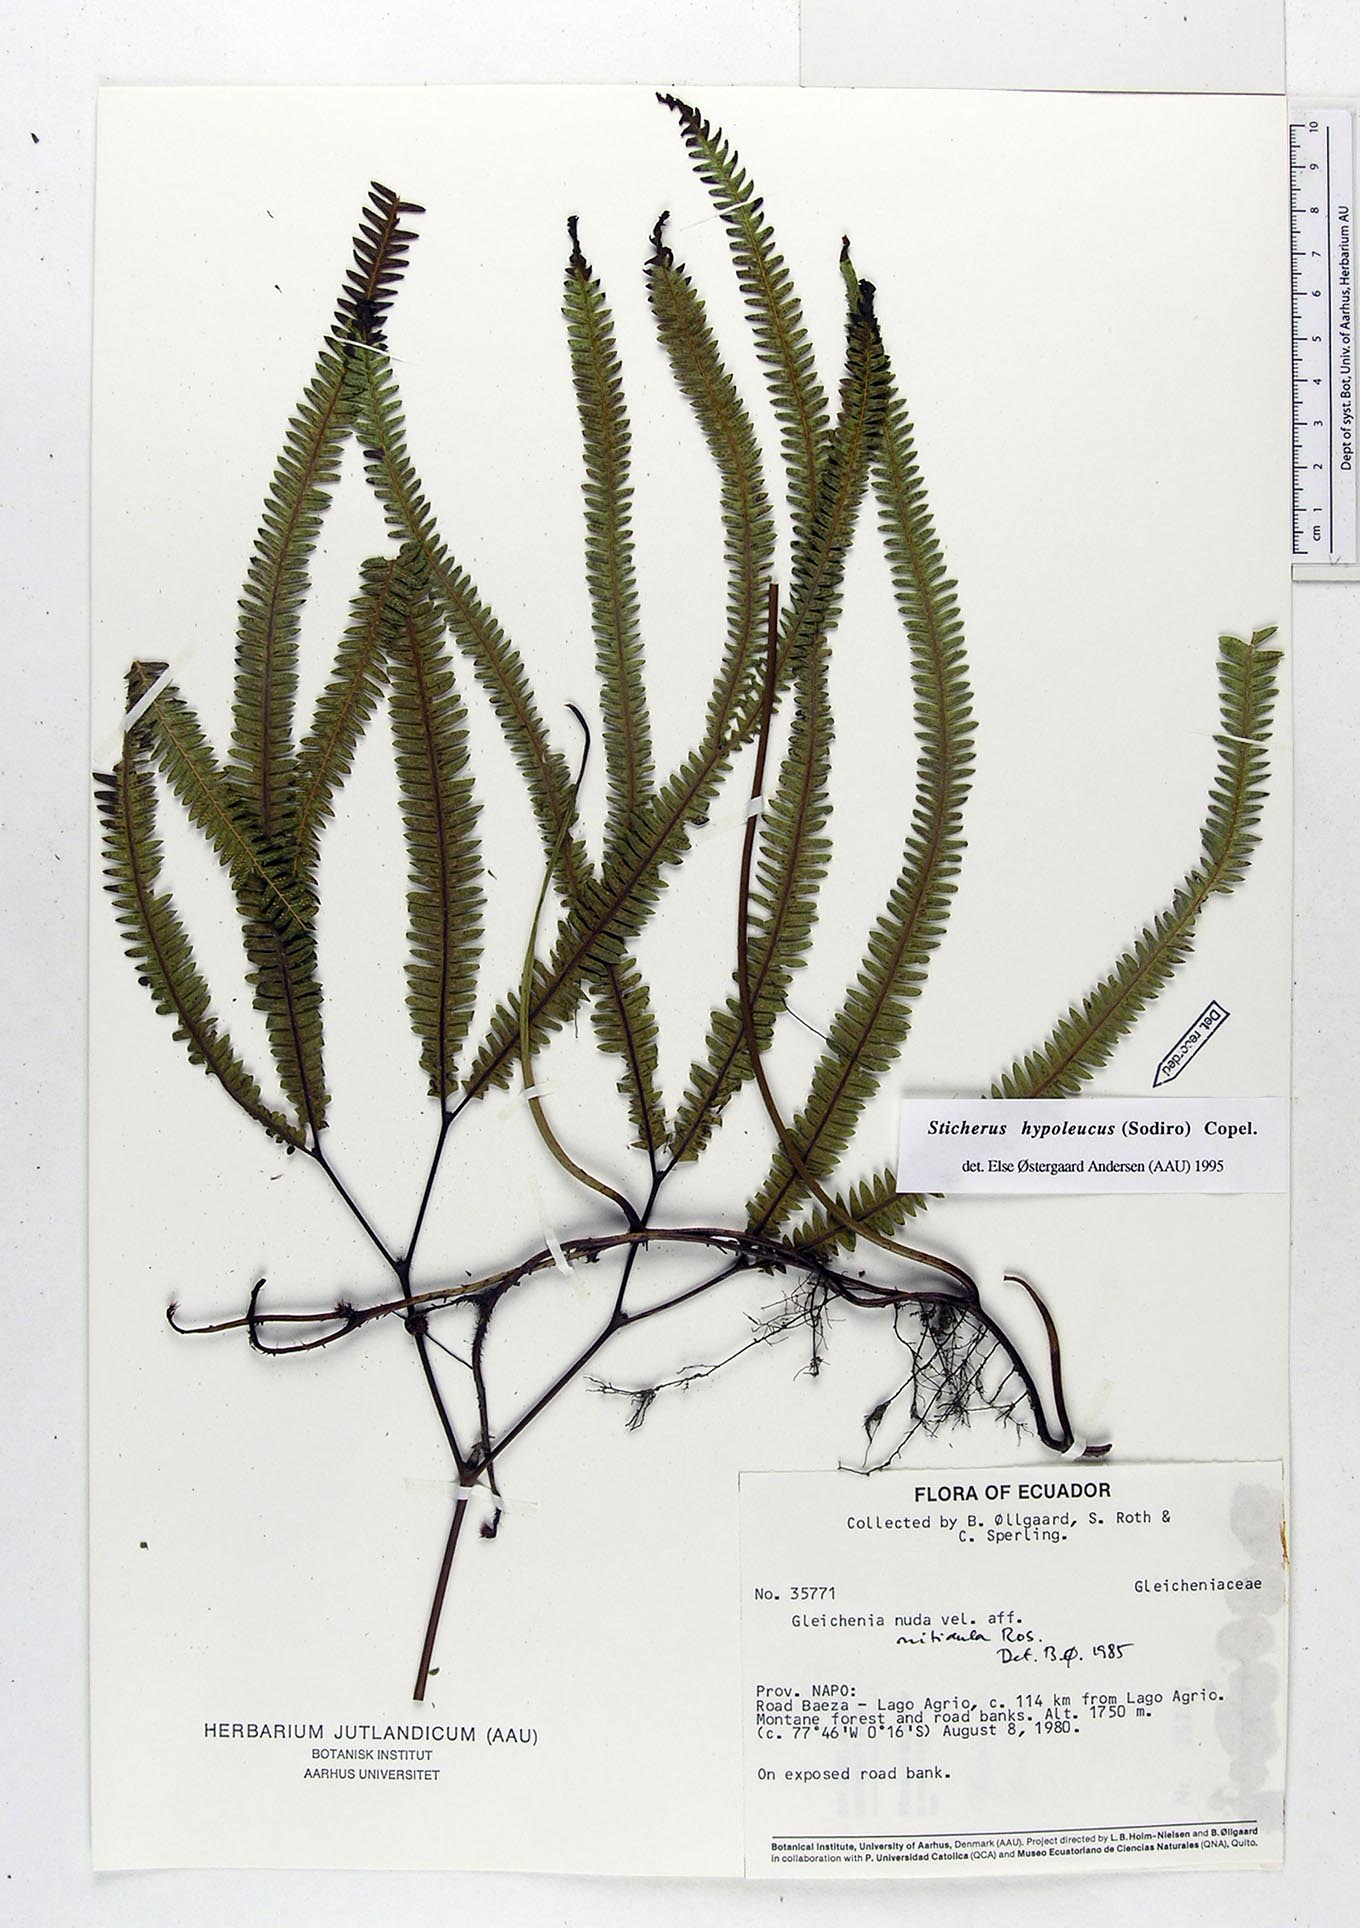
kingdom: Plantae
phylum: Tracheophyta
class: Polypodiopsida
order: Gleicheniales
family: Gleicheniaceae
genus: Sticherus
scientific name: Sticherus hypoleucus
